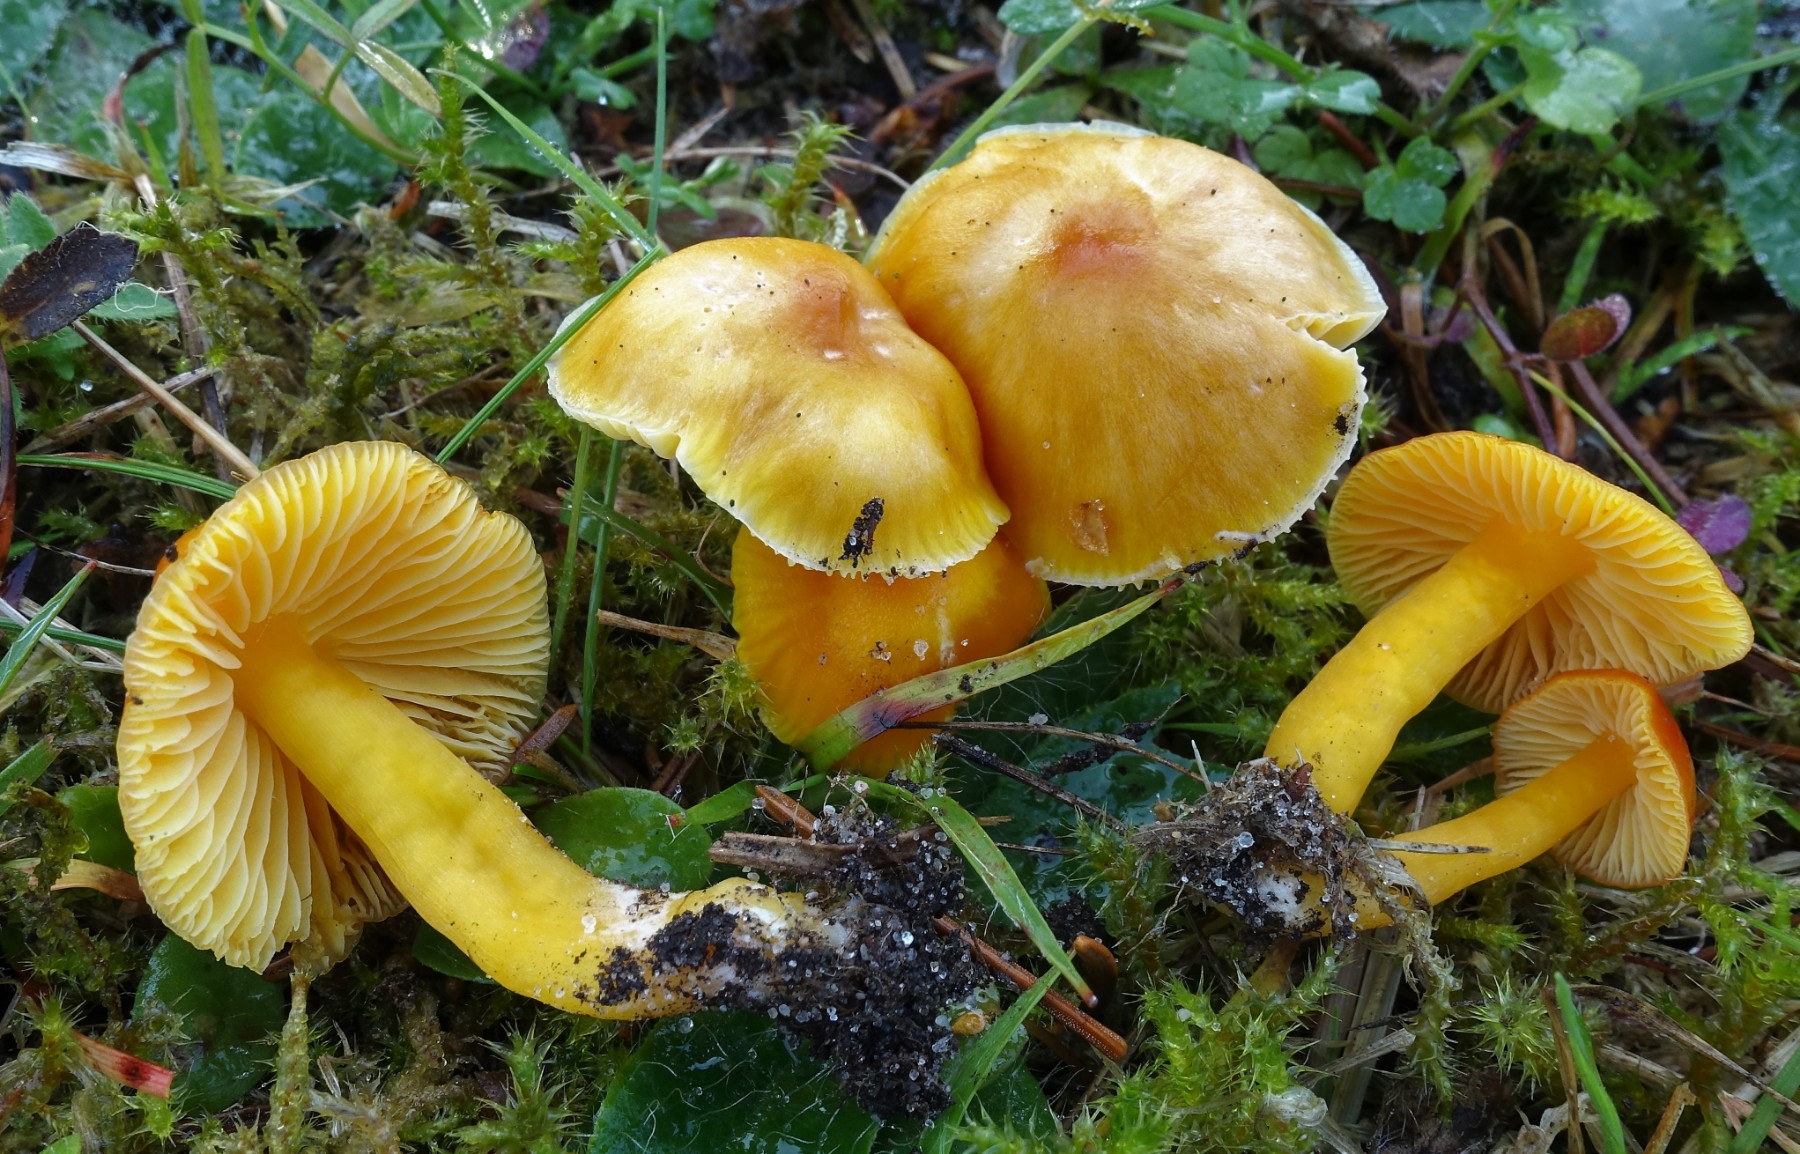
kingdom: Fungi
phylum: Basidiomycota
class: Agaricomycetes
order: Agaricales
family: Hygrophoraceae
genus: Hygrocybe
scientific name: Hygrocybe ceracea
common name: voksgul vokshat
